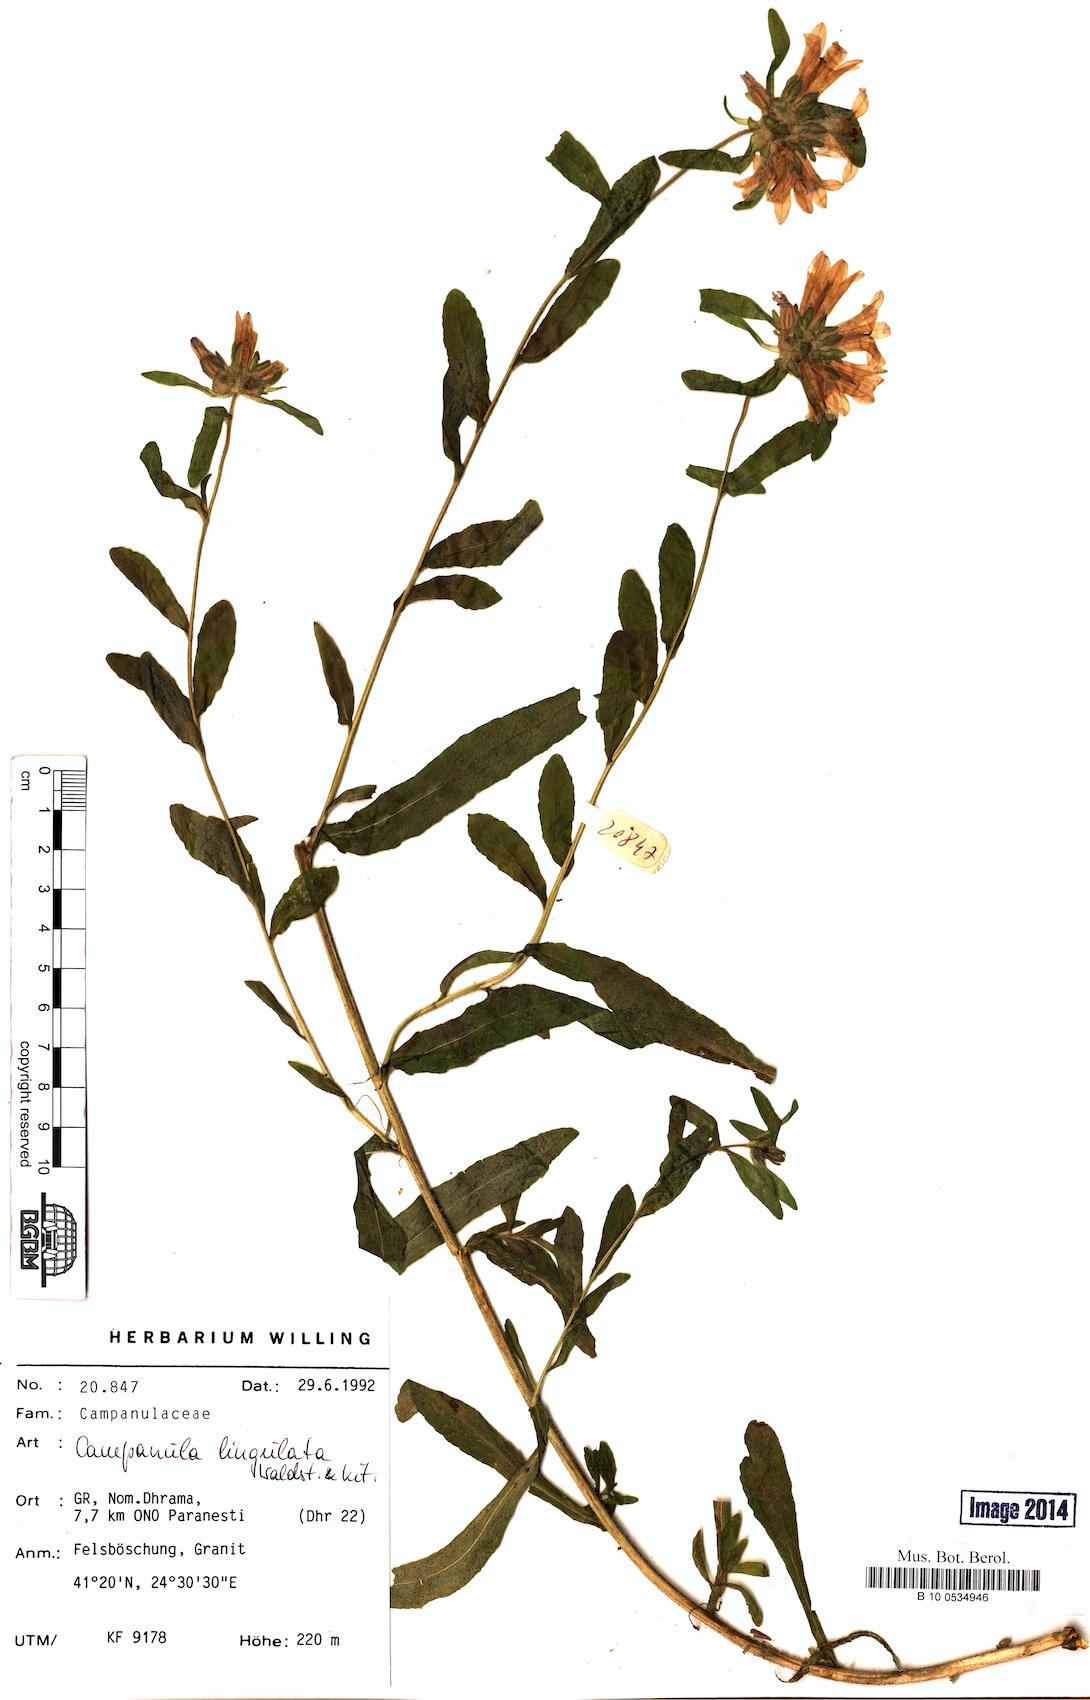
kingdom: Plantae
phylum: Tracheophyta
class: Magnoliopsida
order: Asterales
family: Campanulaceae
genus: Campanula
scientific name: Campanula lingulata
